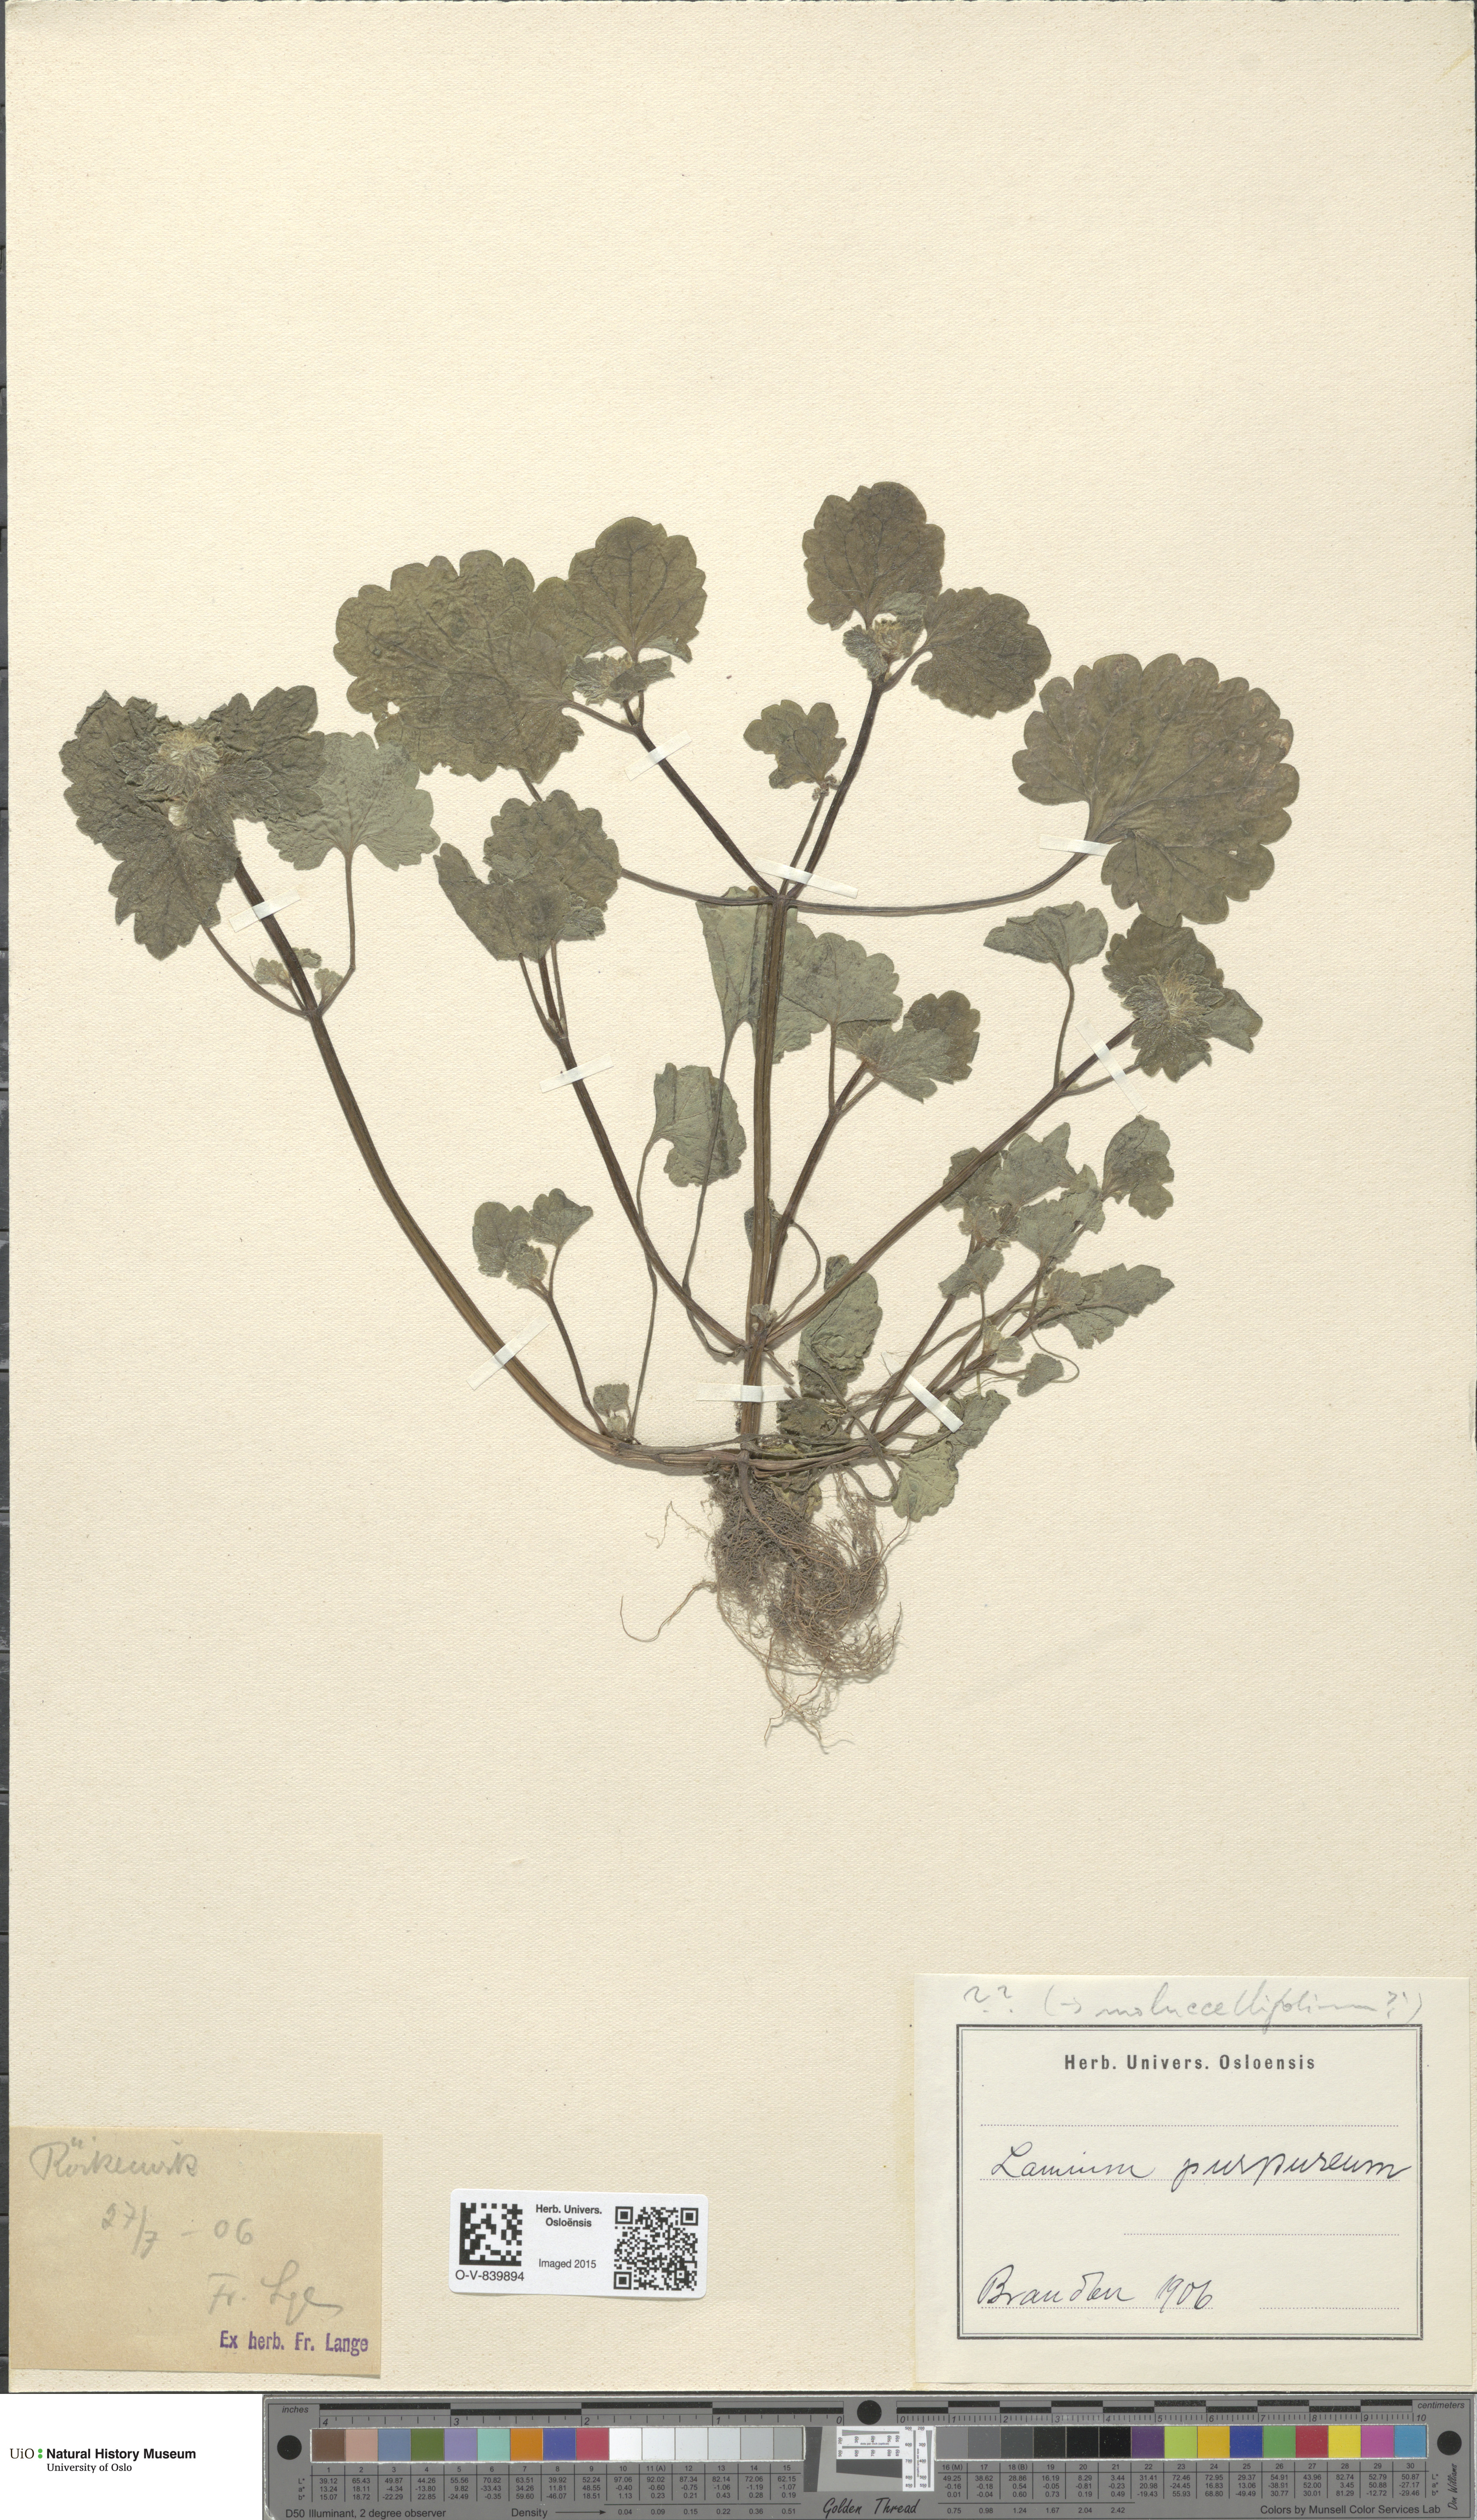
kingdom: Plantae
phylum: Tracheophyta
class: Magnoliopsida
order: Lamiales
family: Lamiaceae
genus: Lamium
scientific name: Lamium confertum
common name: Northern dead-nettle
